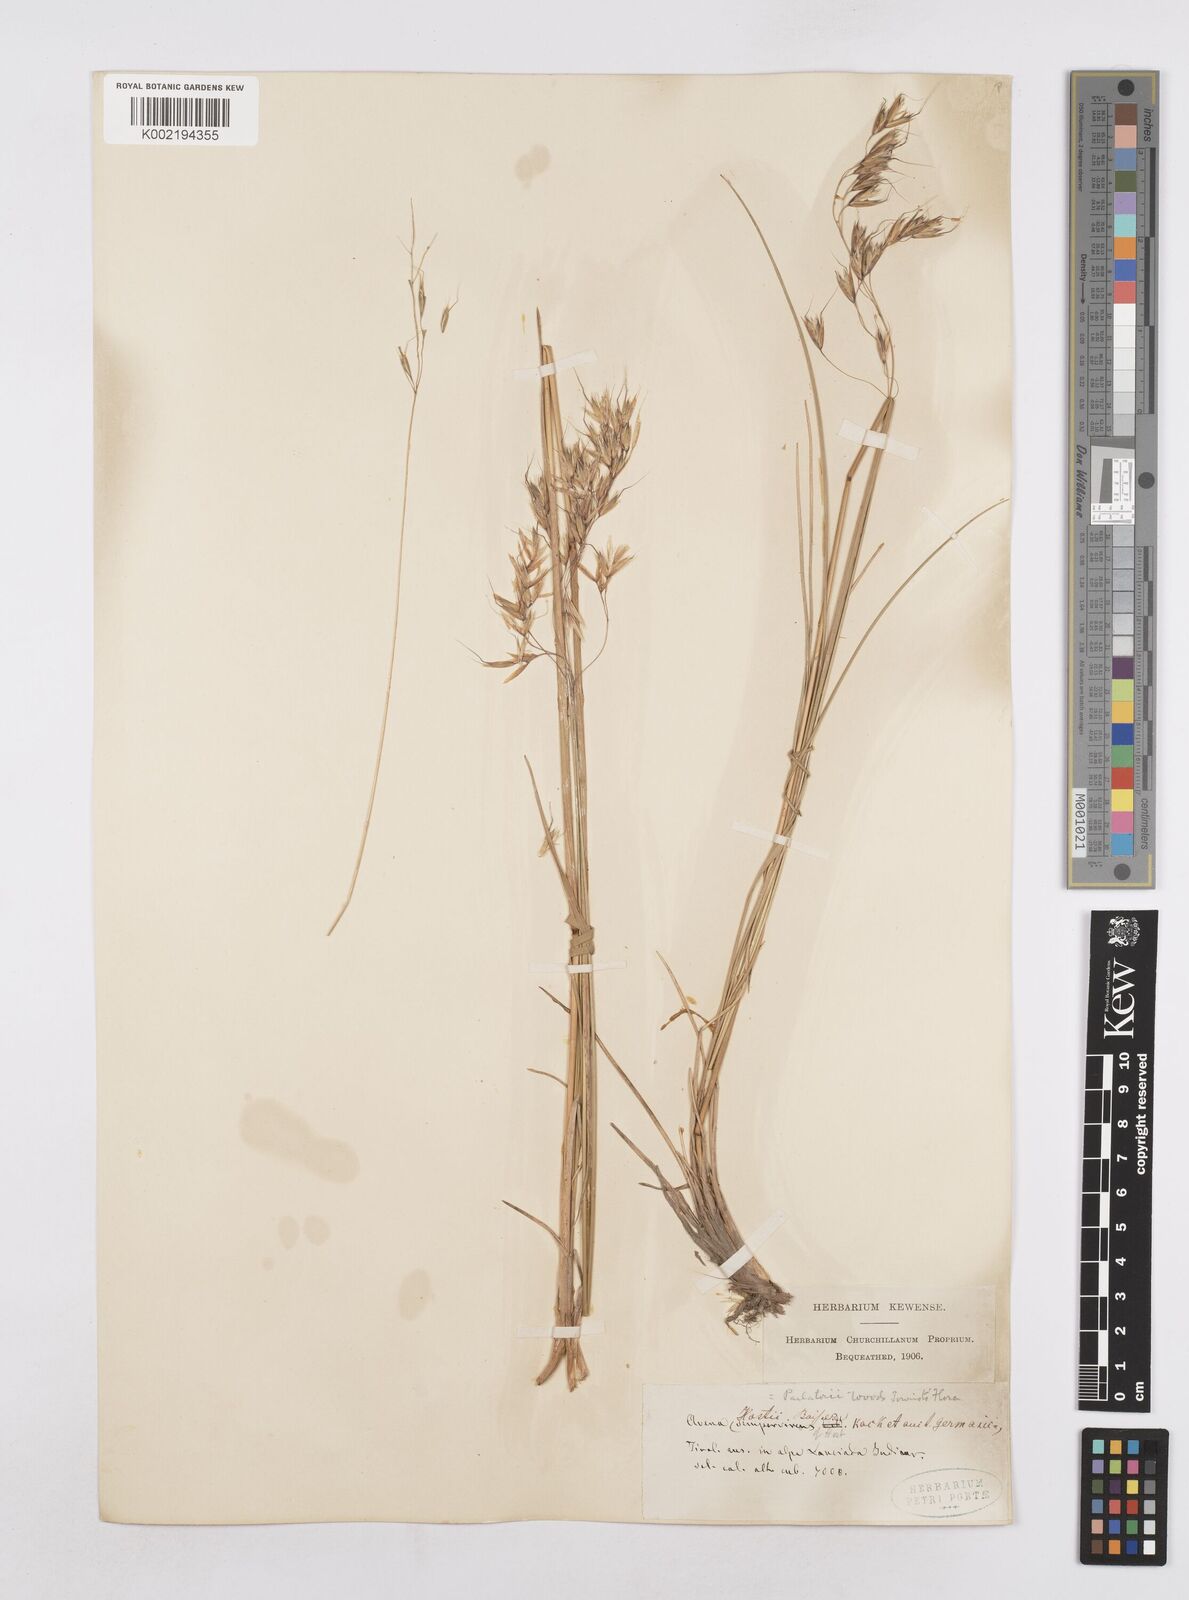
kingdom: Plantae
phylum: Tracheophyta
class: Liliopsida
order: Poales
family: Poaceae
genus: Helictotrichon
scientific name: Helictotrichon parlatorei
